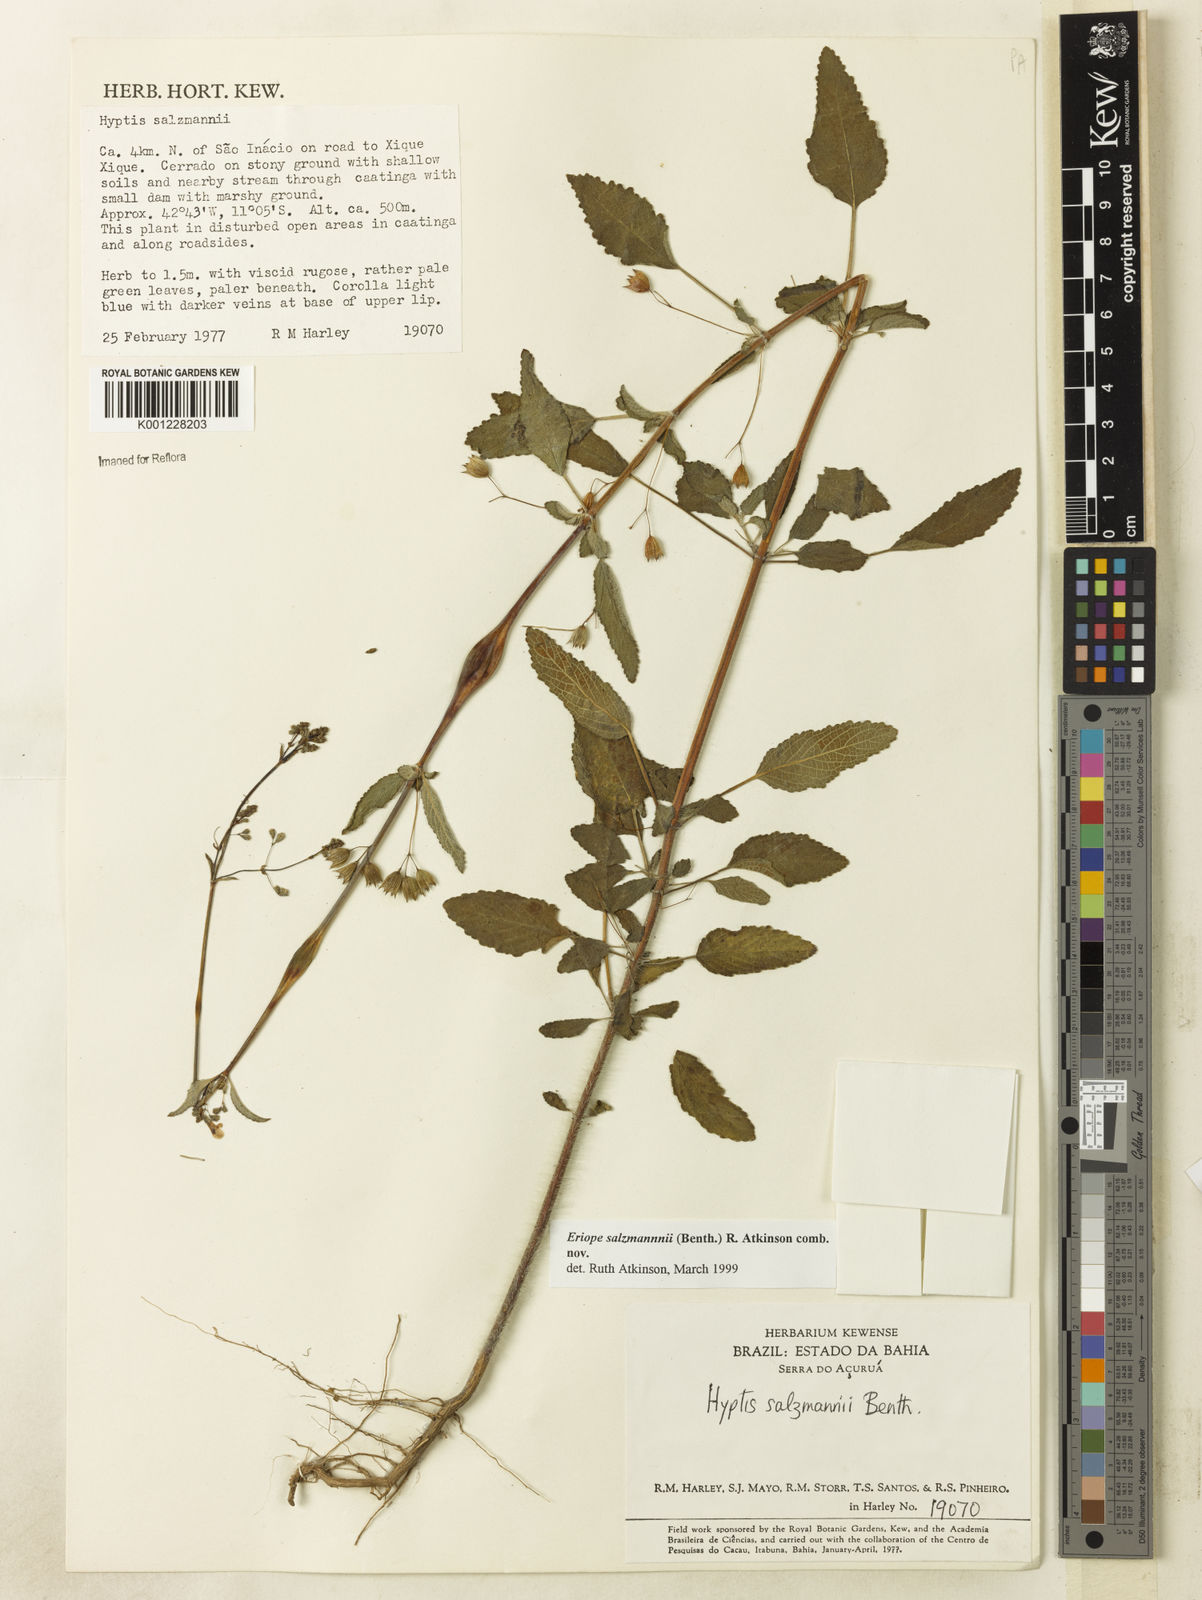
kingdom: Plantae
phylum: Tracheophyta
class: Magnoliopsida
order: Lamiales
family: Lamiaceae
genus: Hypenia
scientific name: Hypenia salzmannii
